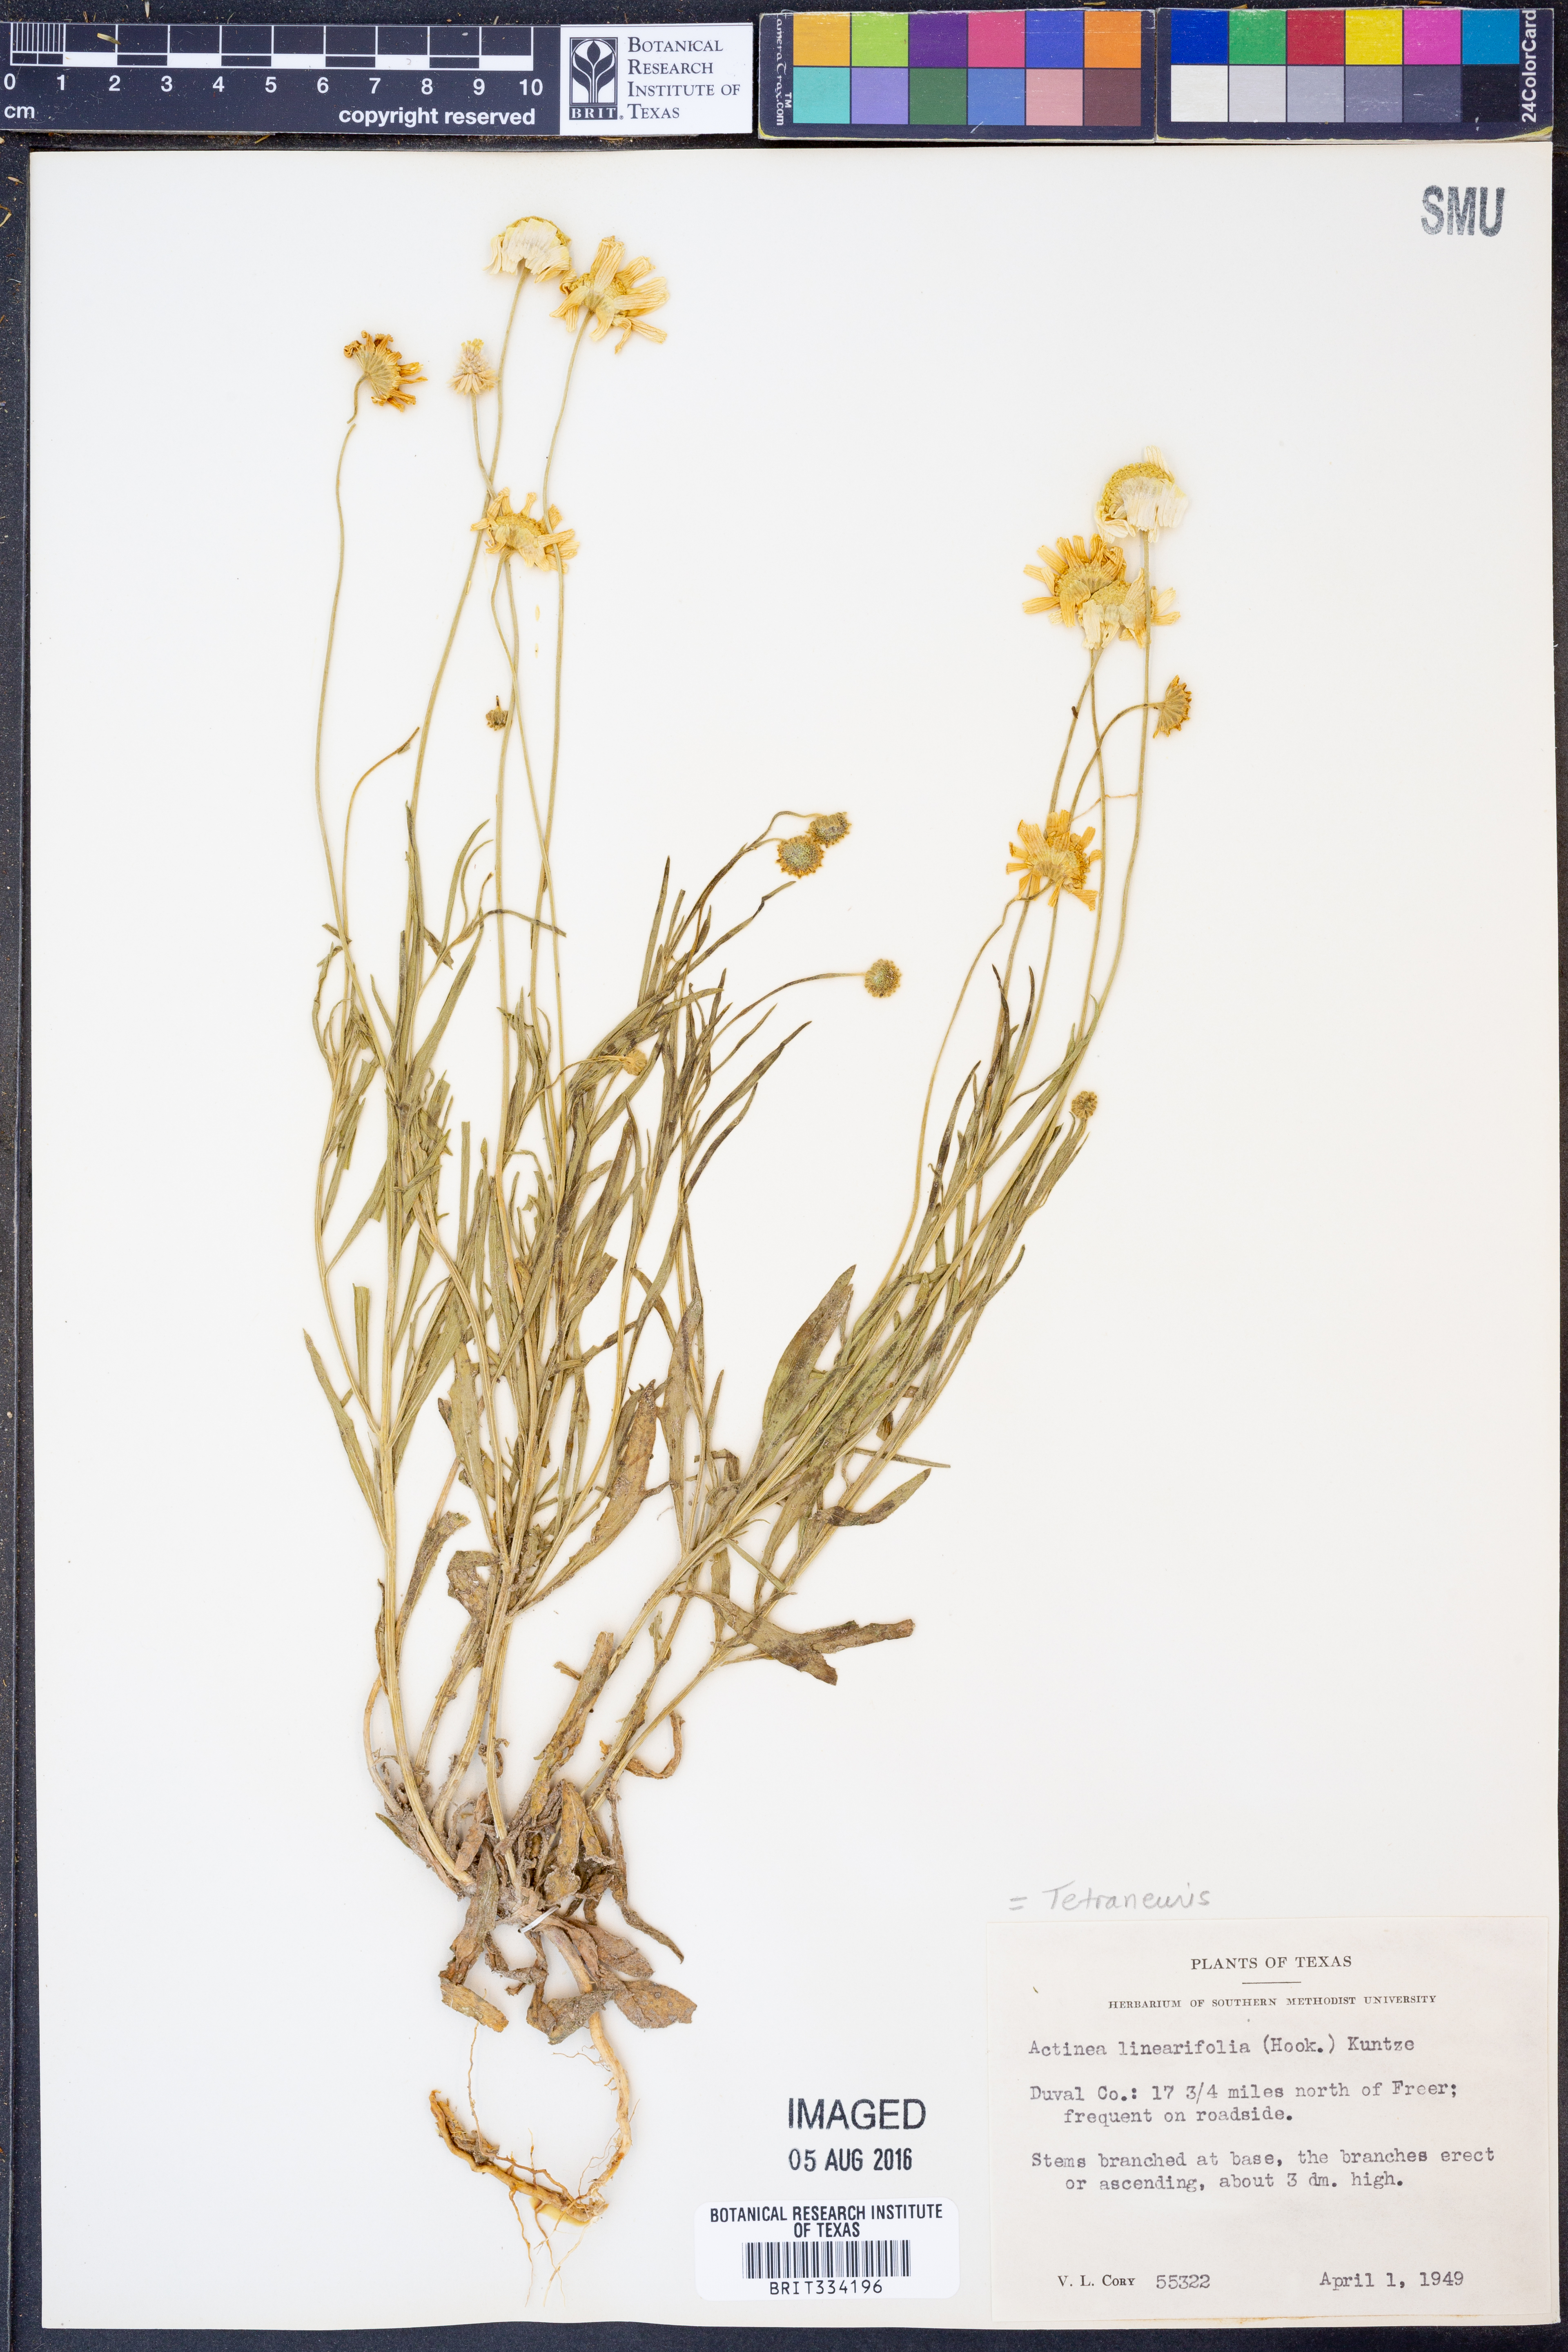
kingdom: Plantae
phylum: Tracheophyta
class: Magnoliopsida
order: Asterales
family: Asteraceae
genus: Tetraneuris
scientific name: Tetraneuris linearifolia
